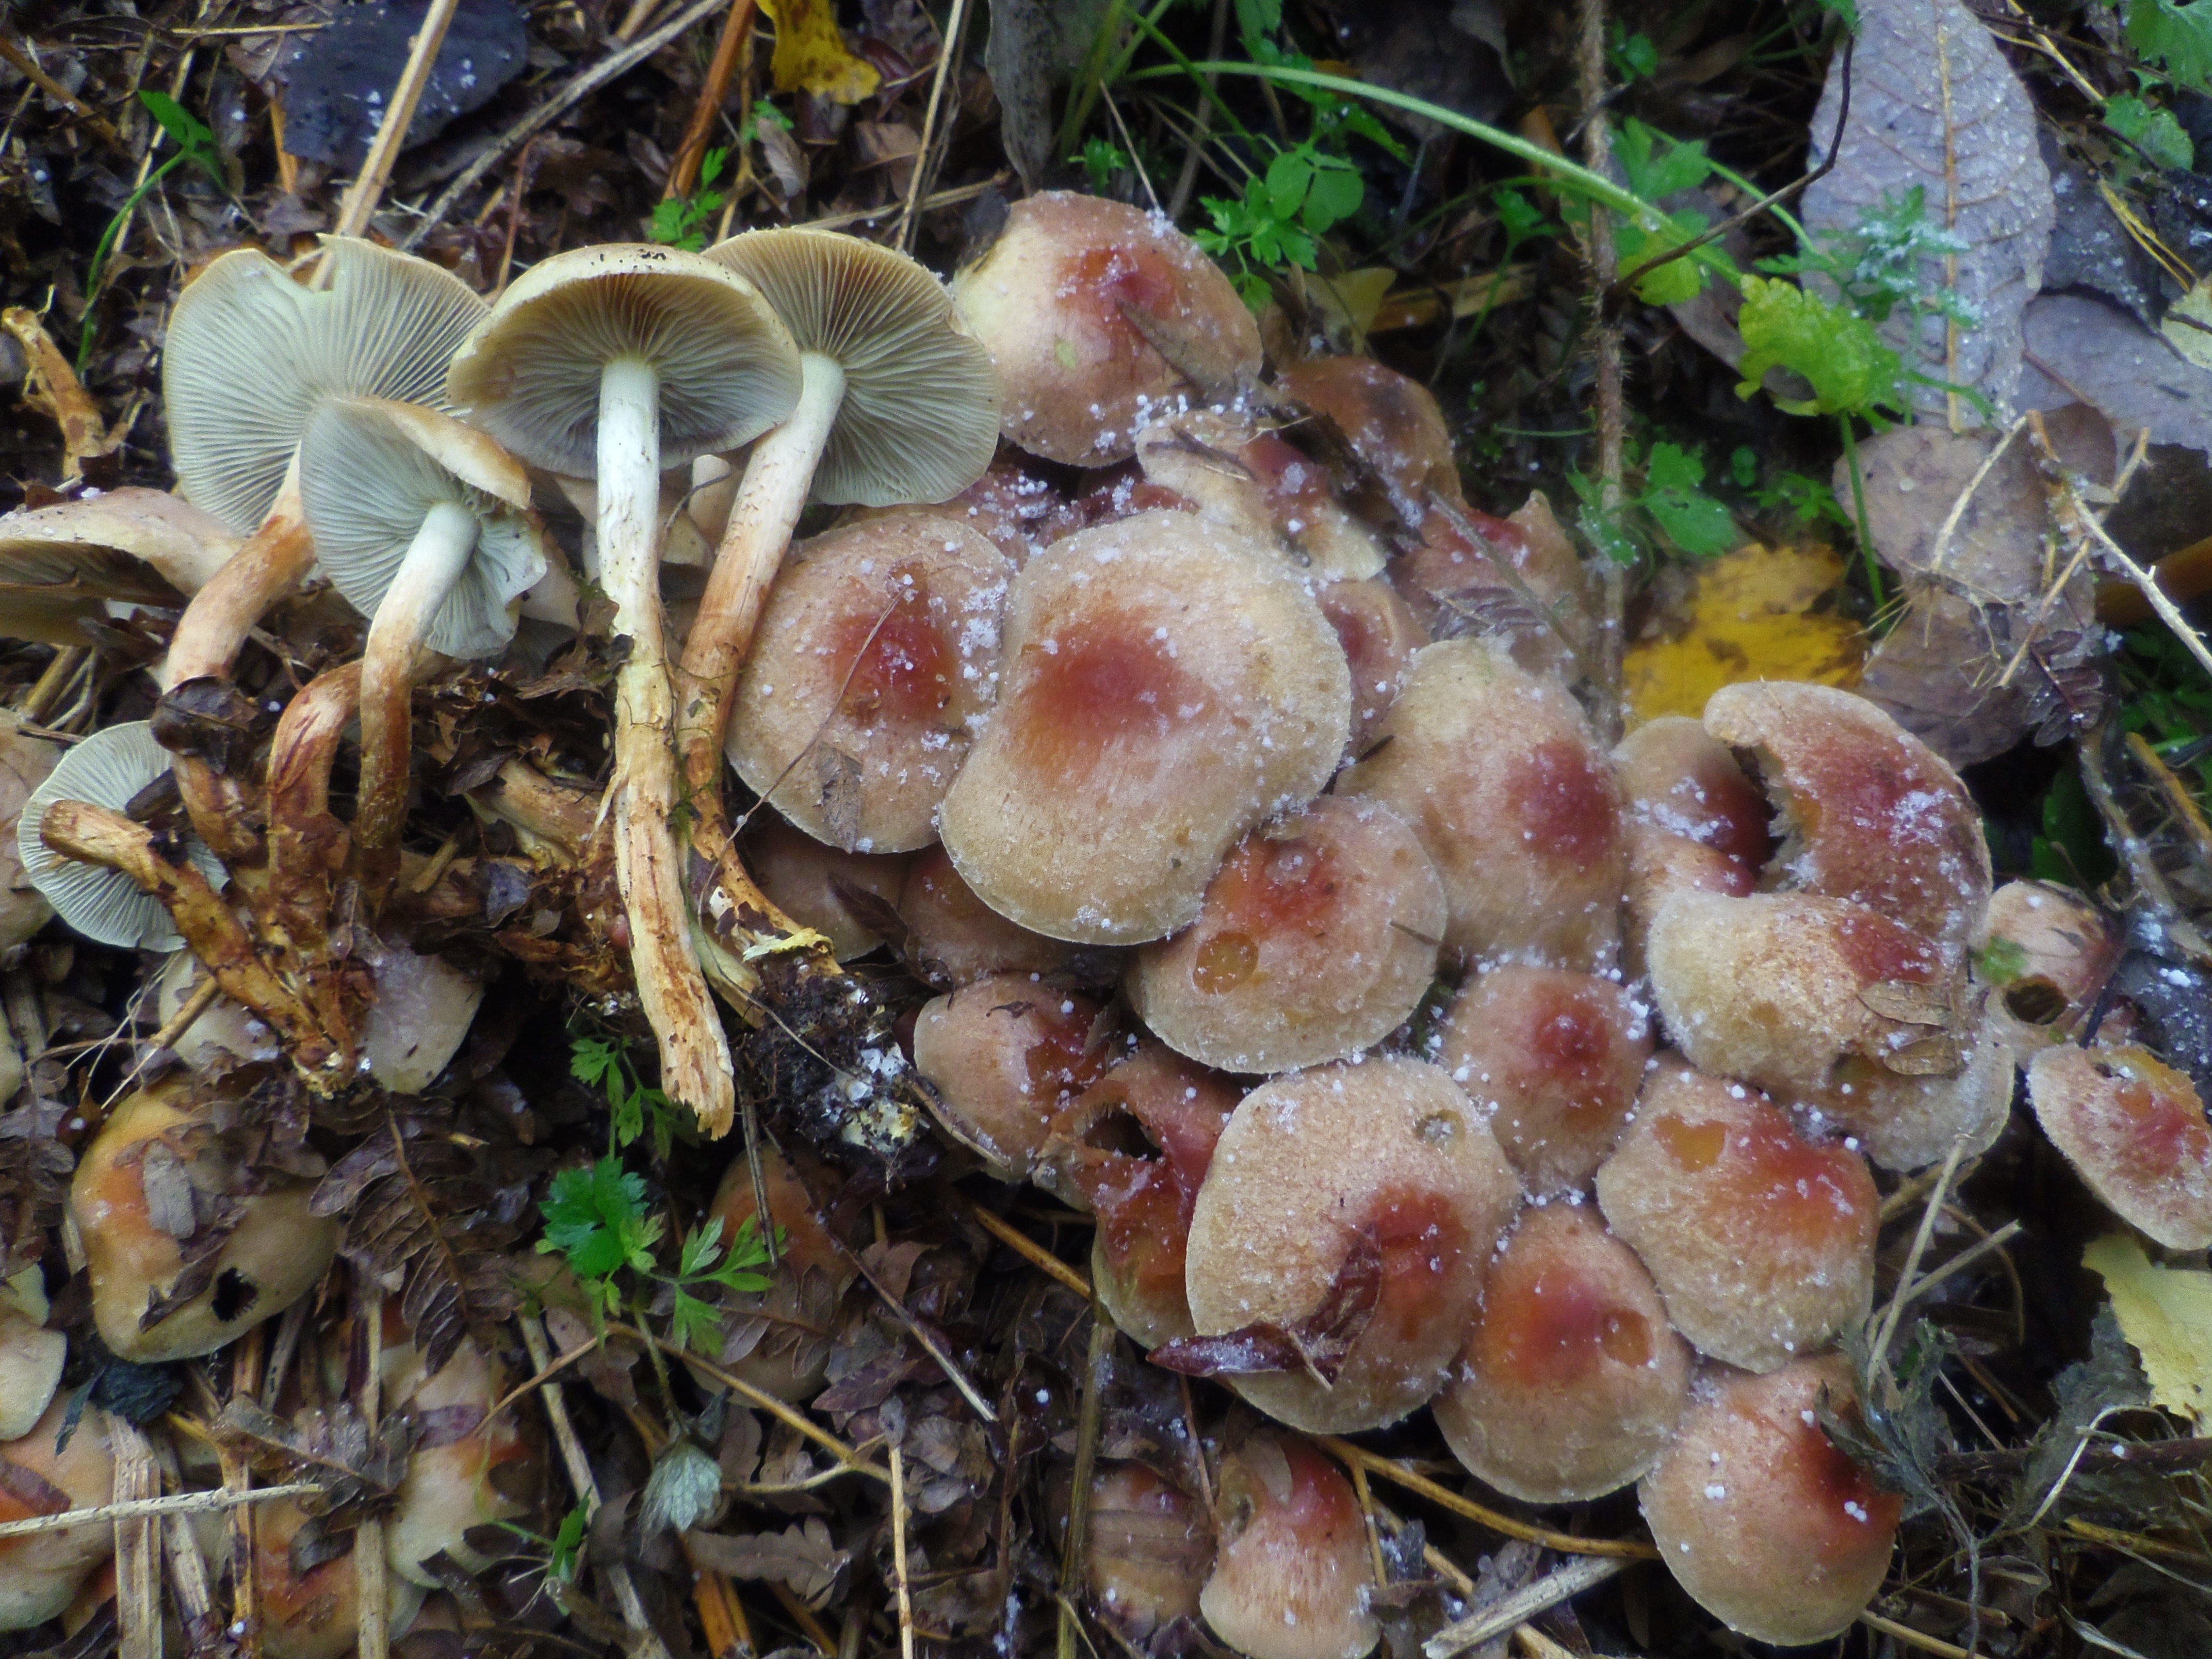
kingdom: Fungi
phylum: Basidiomycota
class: Agaricomycetes
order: Agaricales
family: Strophariaceae
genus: Hypholoma
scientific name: Hypholoma lateritium
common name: Brick caps
